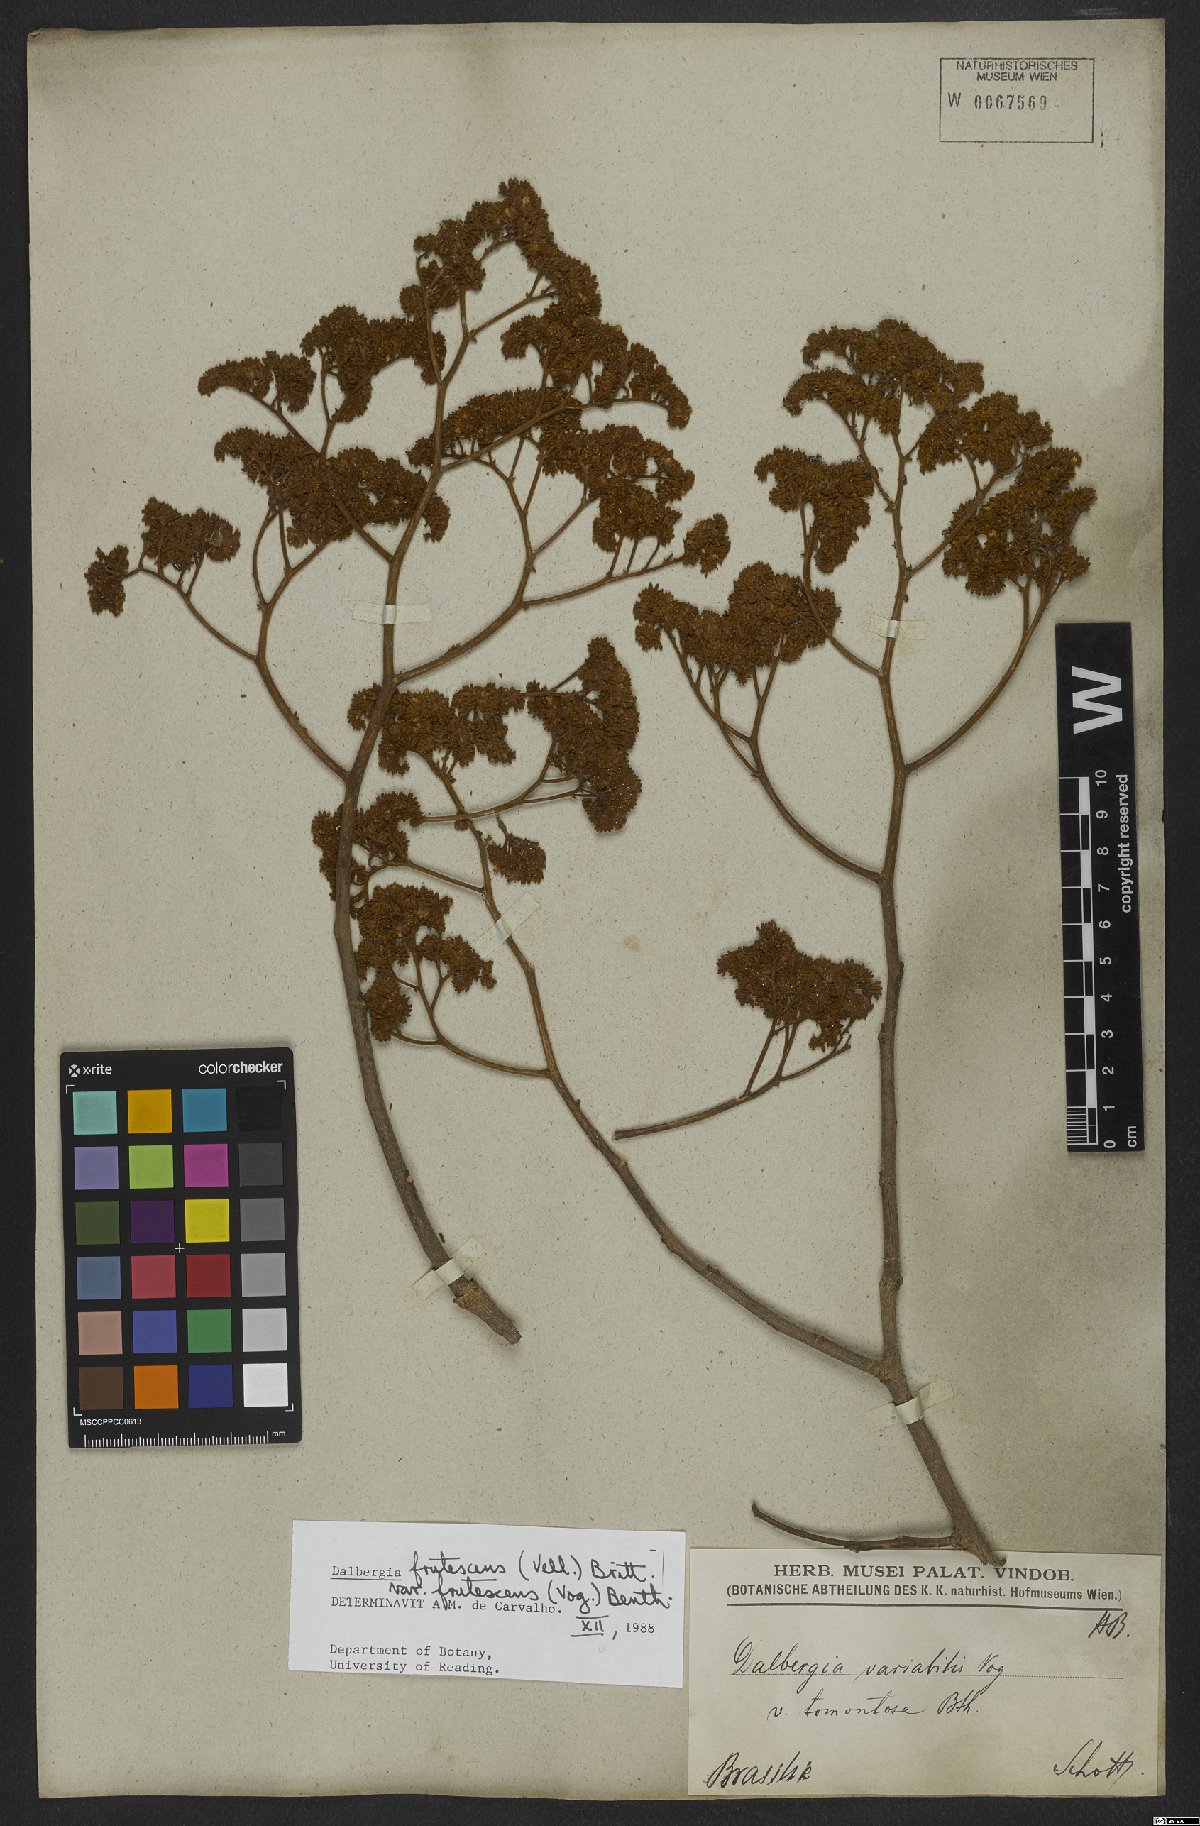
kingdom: Plantae
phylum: Tracheophyta
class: Magnoliopsida
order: Fabales
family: Fabaceae
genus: Dalbergia
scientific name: Dalbergia frutescens
